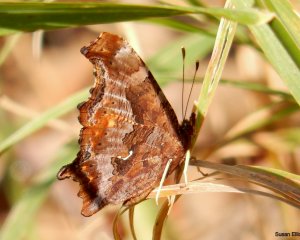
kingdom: Animalia
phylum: Arthropoda
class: Insecta
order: Lepidoptera
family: Nymphalidae
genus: Polygonia
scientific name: Polygonia comma
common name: Eastern Comma
